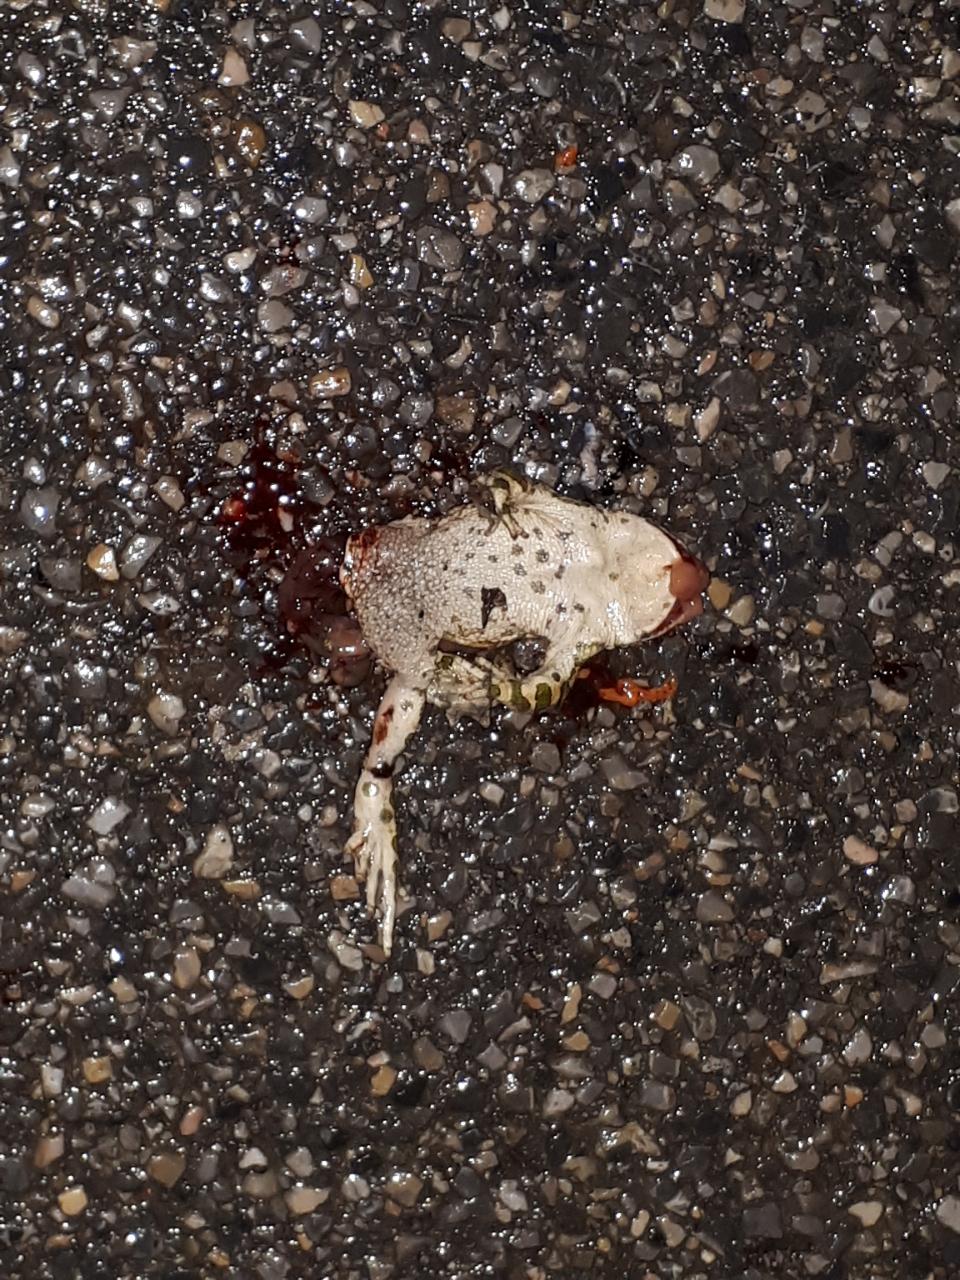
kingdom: Animalia
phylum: Chordata
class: Amphibia
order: Anura
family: Bufonidae
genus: Bufotes
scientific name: Bufotes viridis
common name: European green toad
